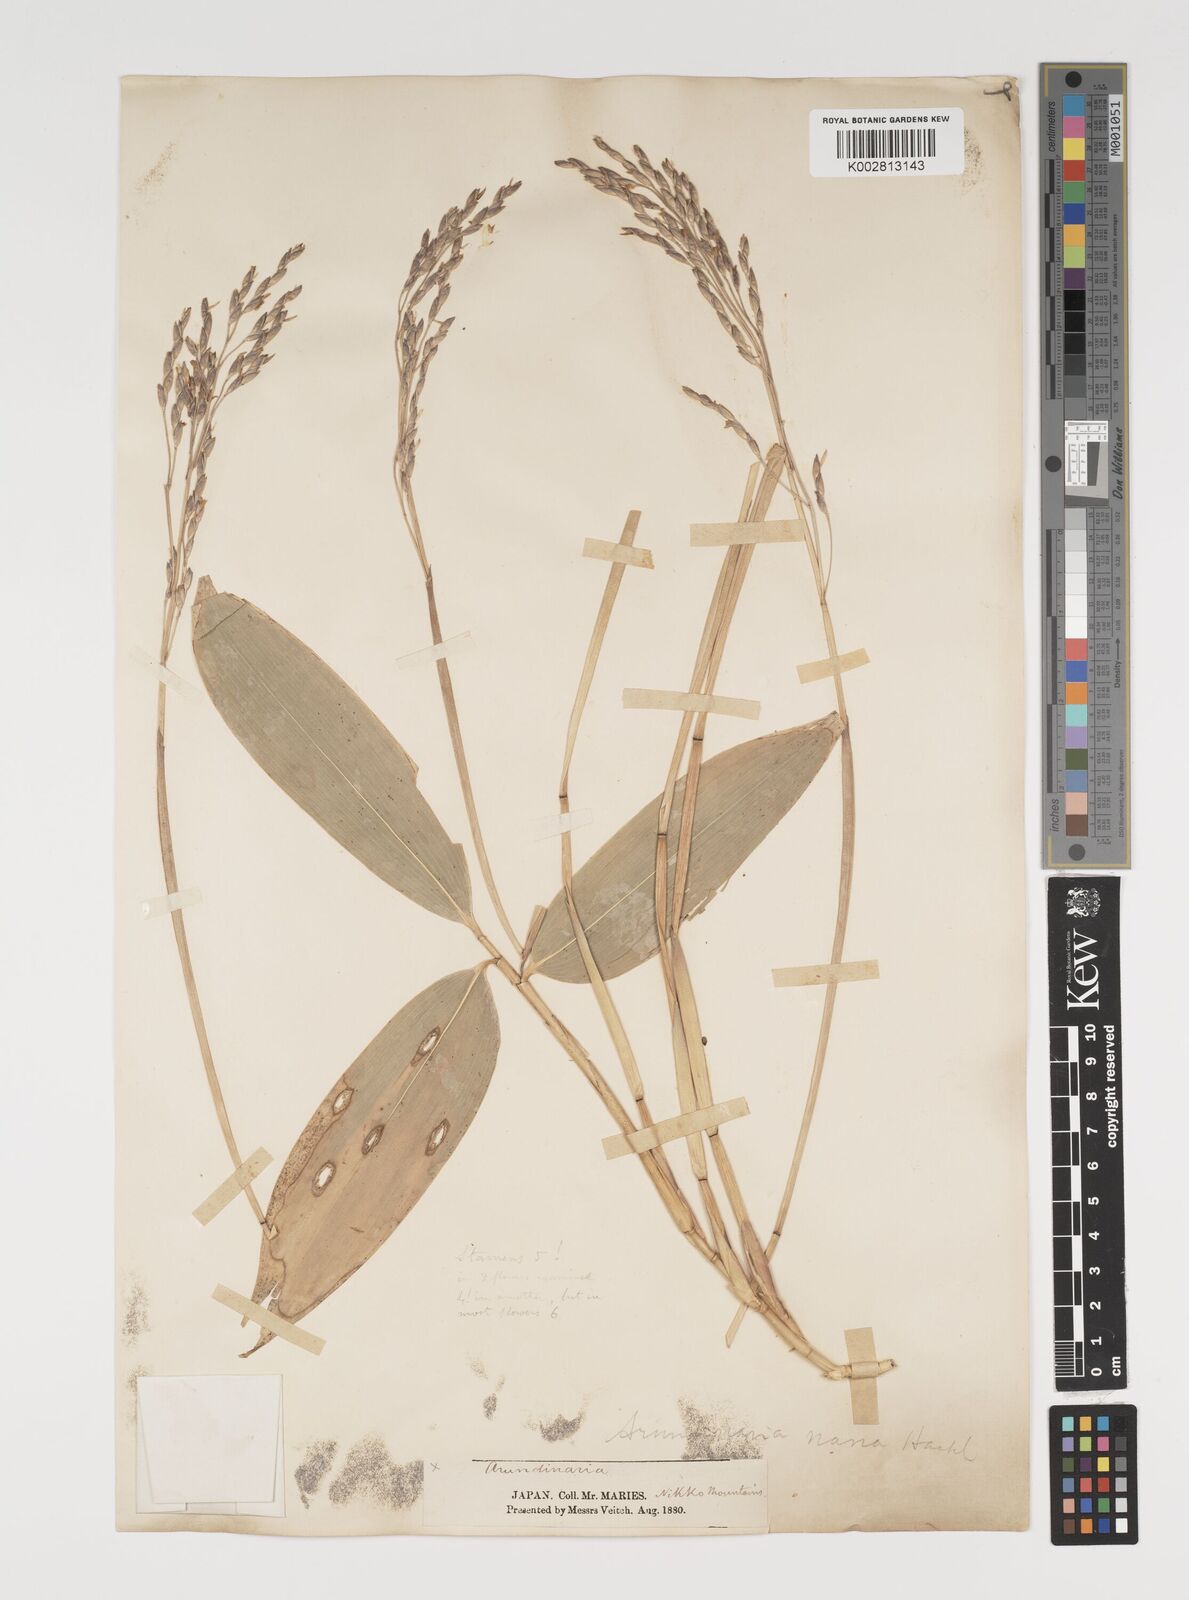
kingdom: Plantae
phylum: Tracheophyta
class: Liliopsida
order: Poales
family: Poaceae
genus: Sasa
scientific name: Sasa palmata
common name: Broad-leaved bamboo
